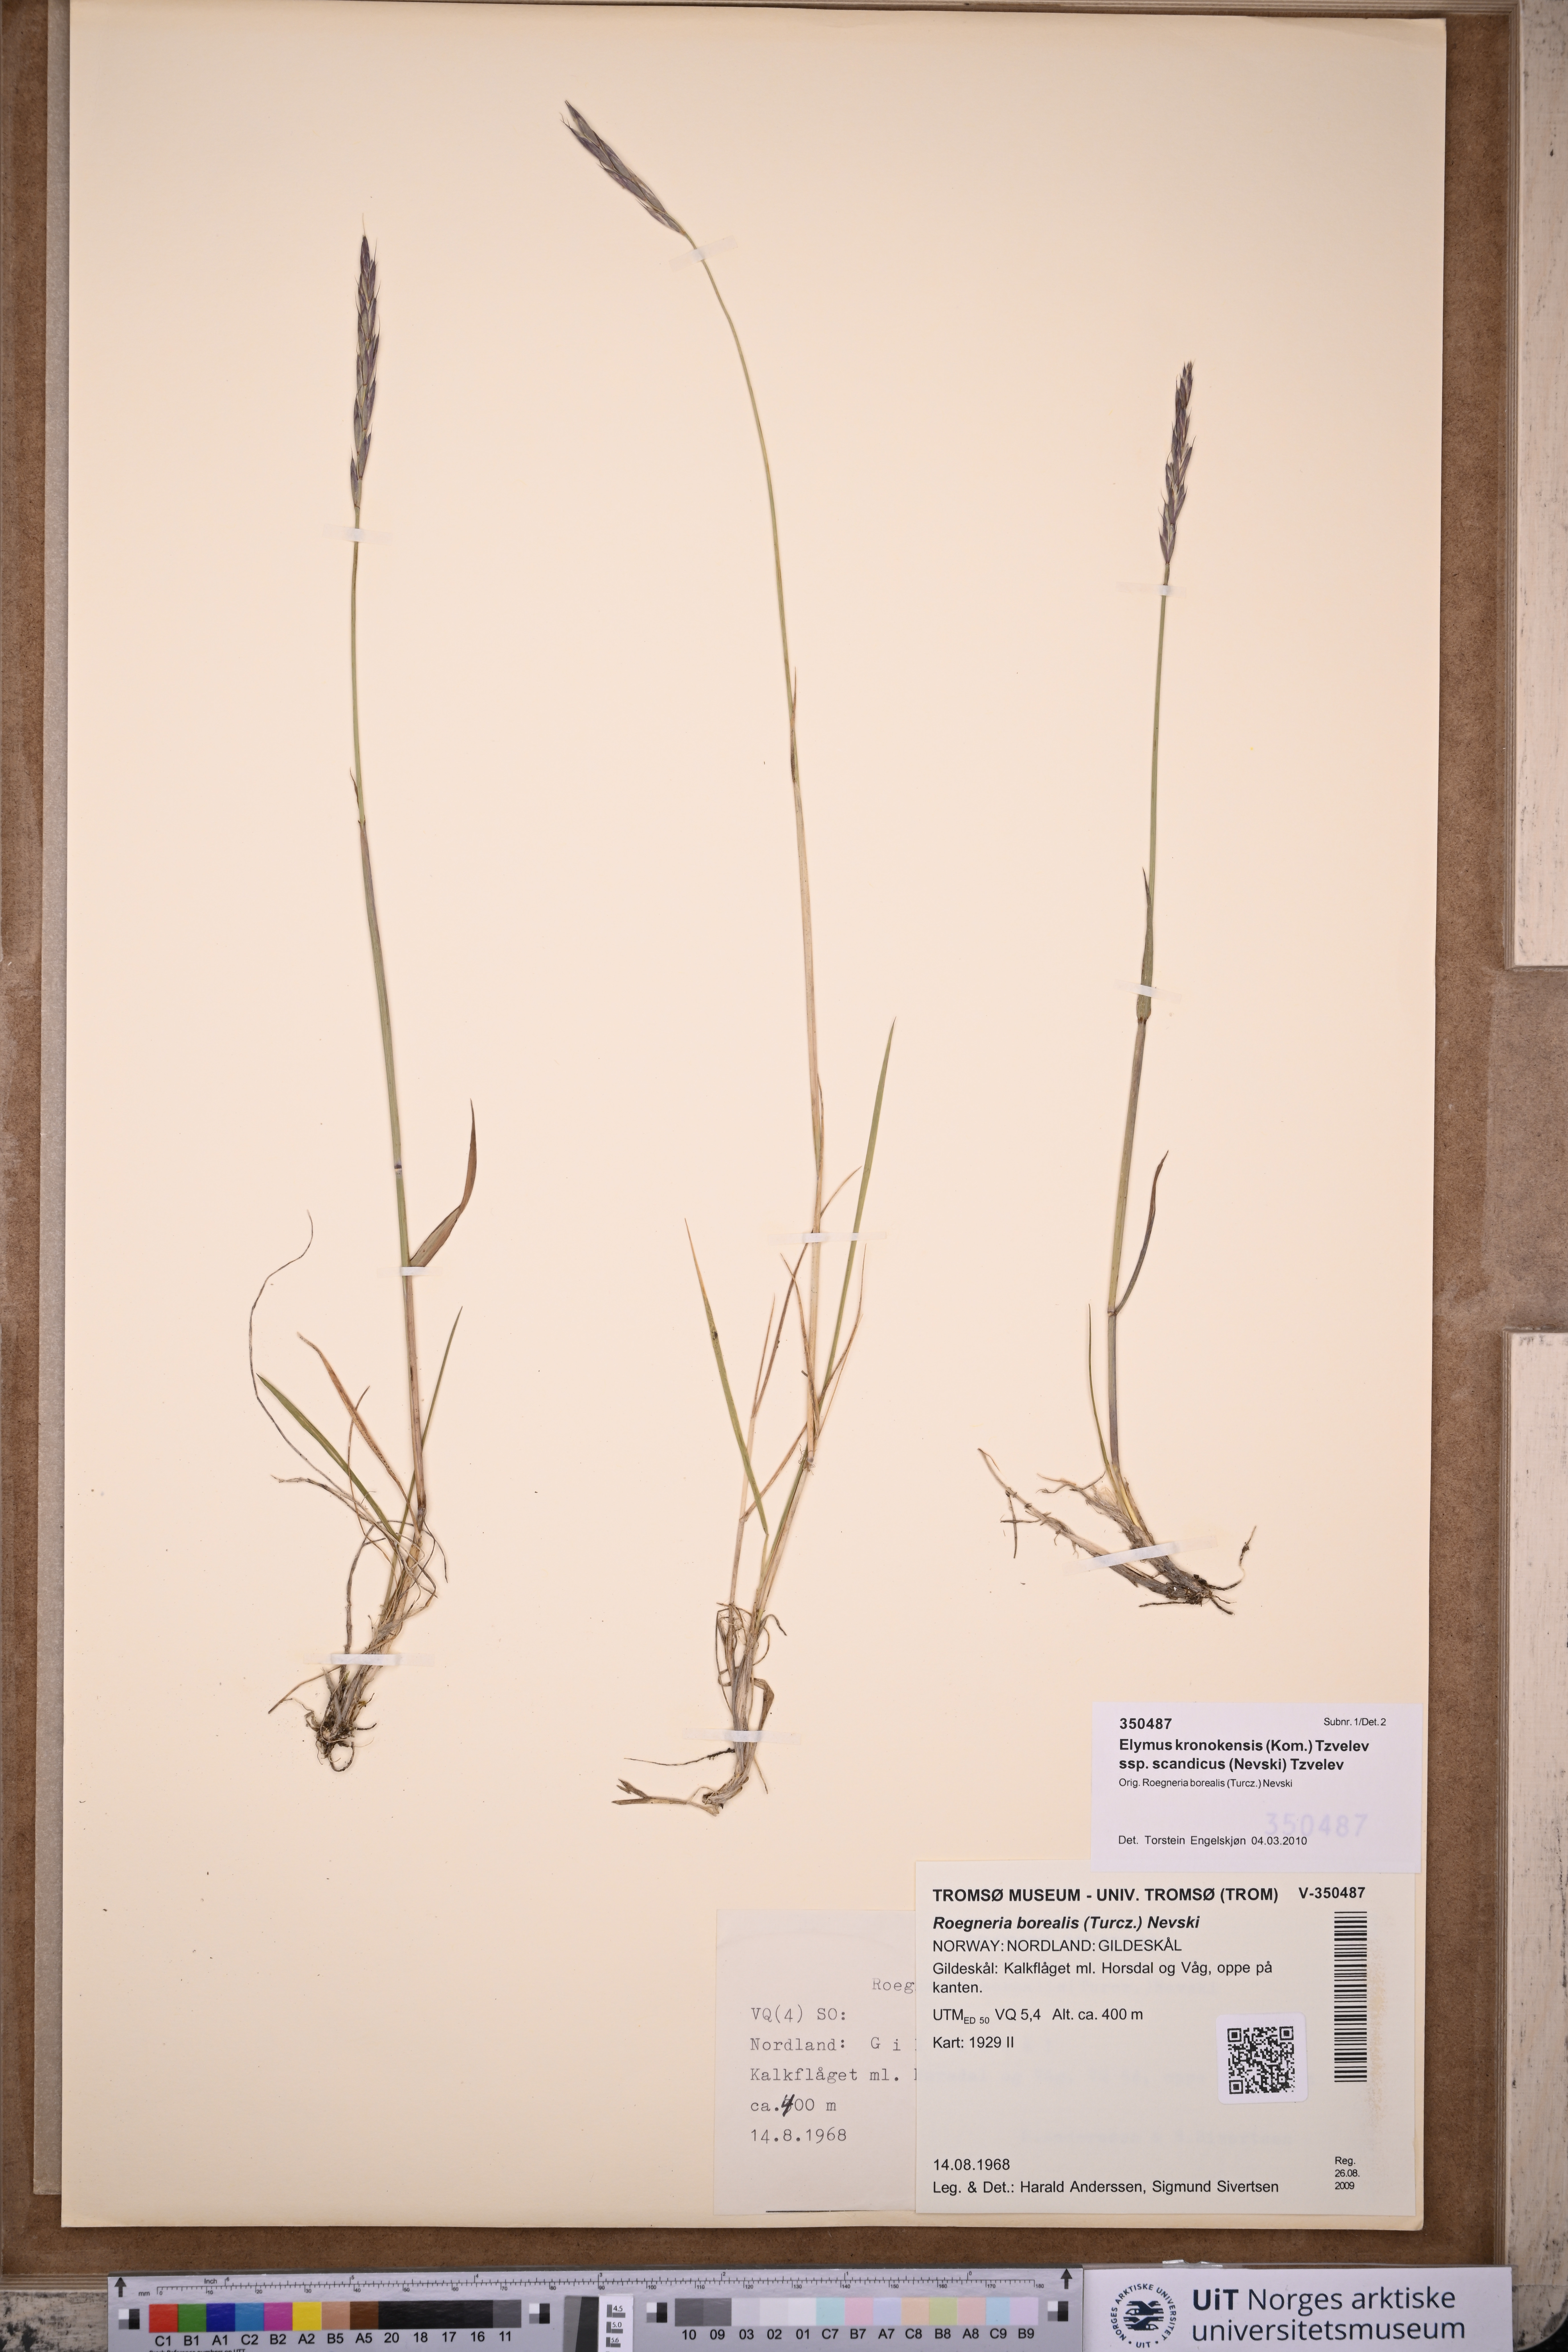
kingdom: Plantae
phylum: Tracheophyta
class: Liliopsida
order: Poales
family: Poaceae
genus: Elymus
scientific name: Elymus macrourus
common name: Northern wheatgrass
